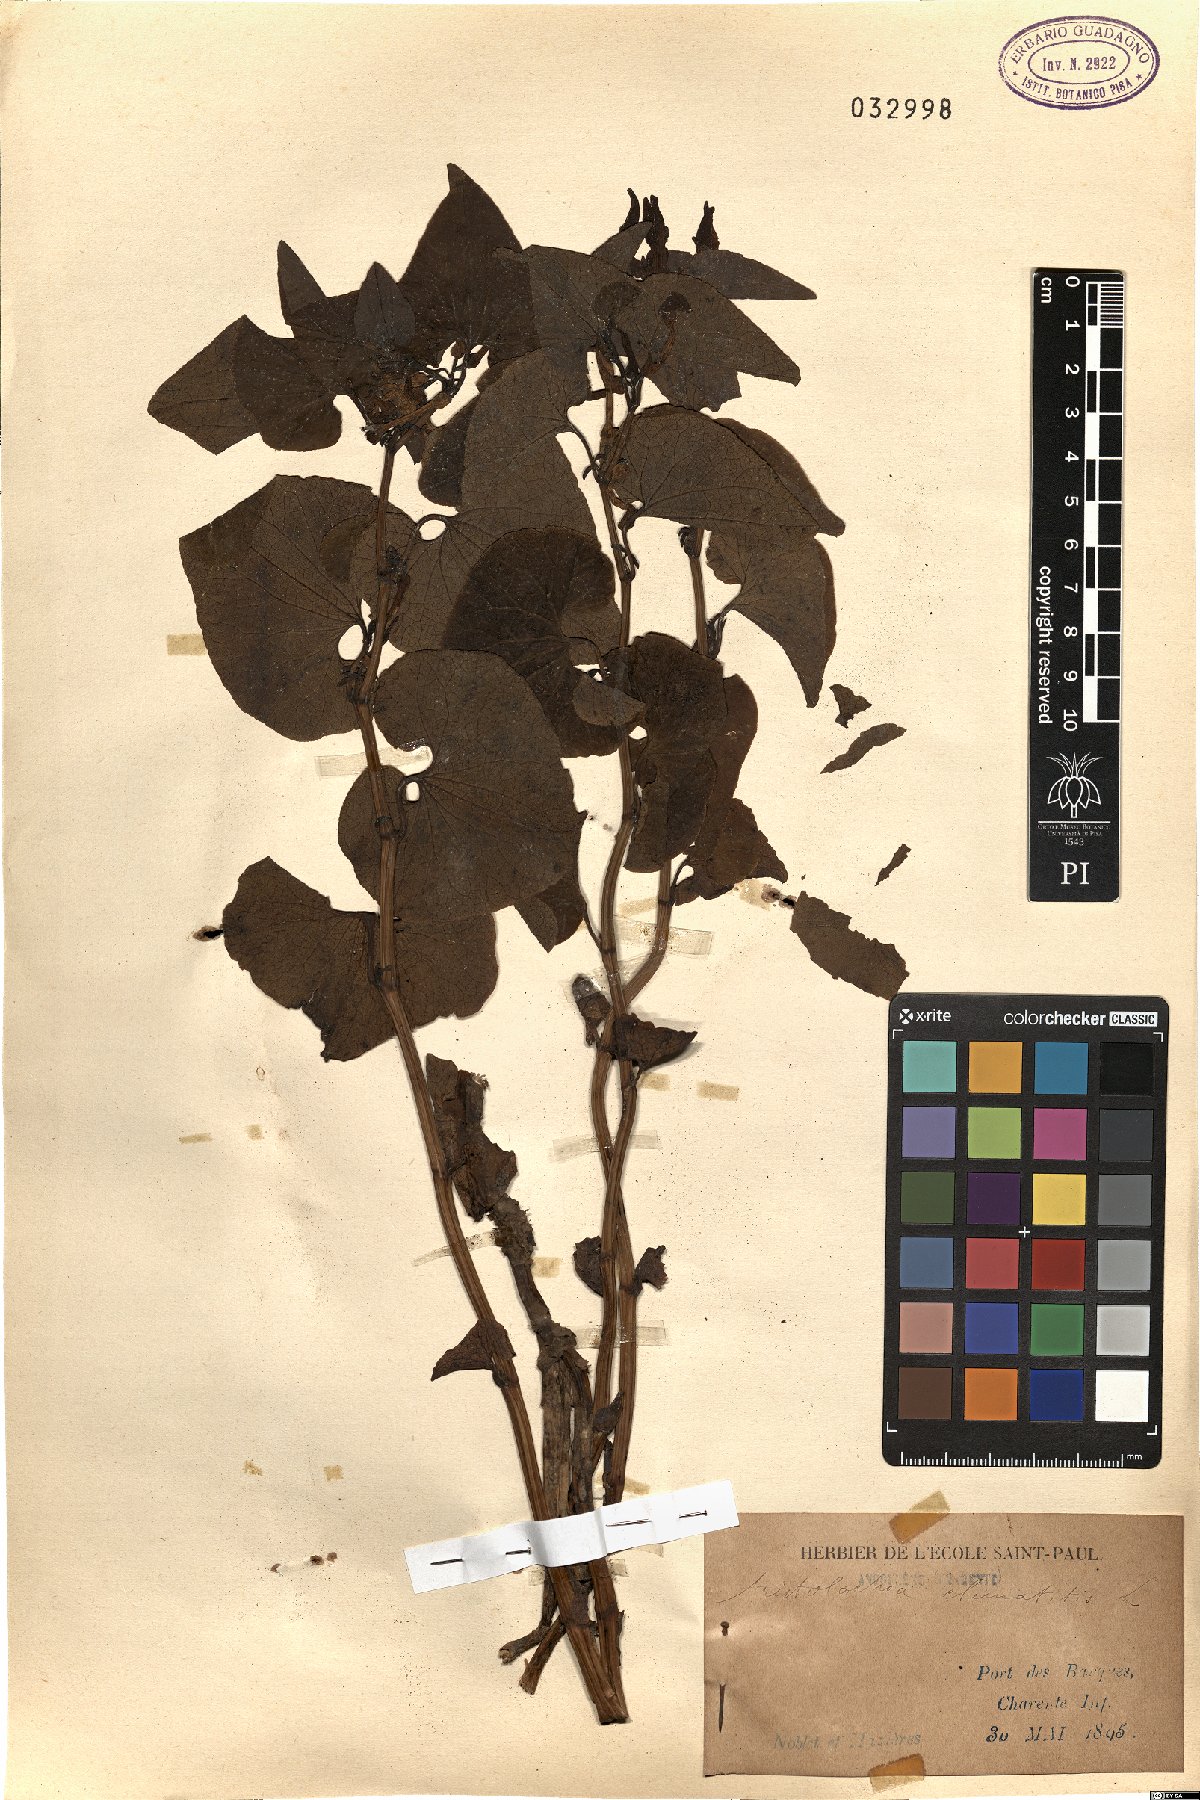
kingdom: Plantae
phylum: Tracheophyta
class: Magnoliopsida
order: Piperales
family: Aristolochiaceae
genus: Aristolochia
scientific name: Aristolochia clematitis
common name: Birthwort
